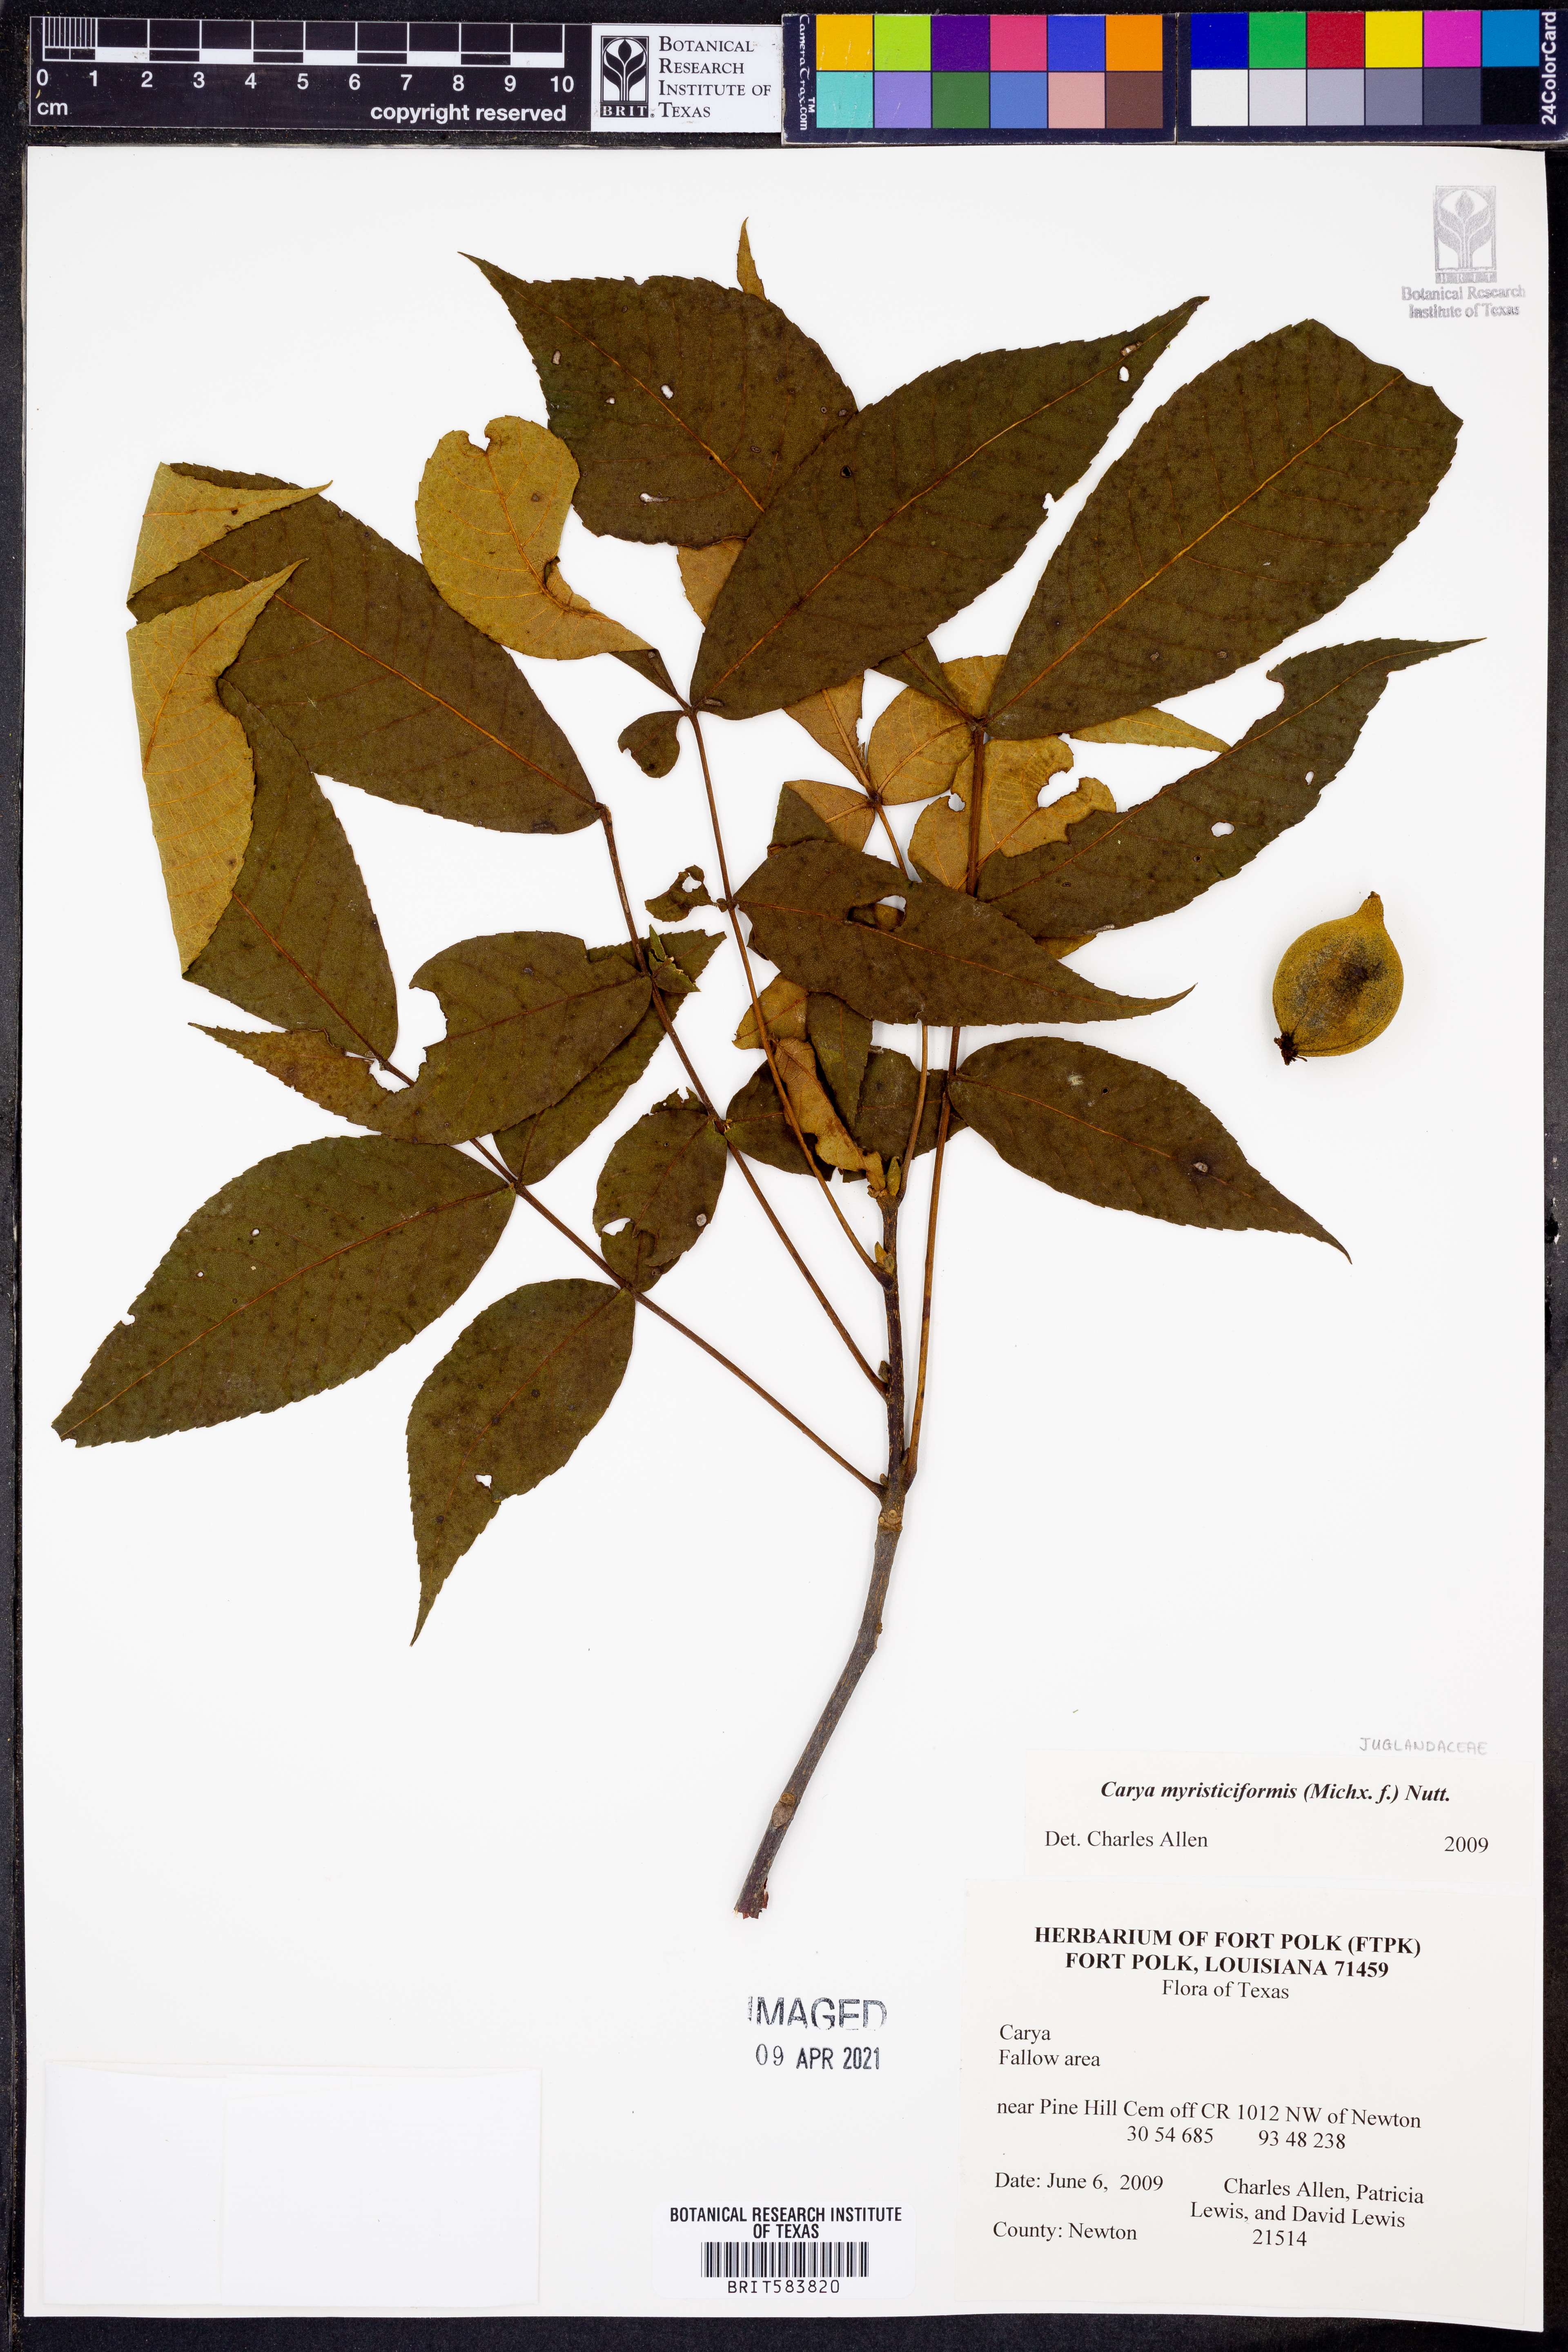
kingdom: Plantae
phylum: Tracheophyta
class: Magnoliopsida
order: Fagales
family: Juglandaceae
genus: Carya
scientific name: Carya myristiciformis
